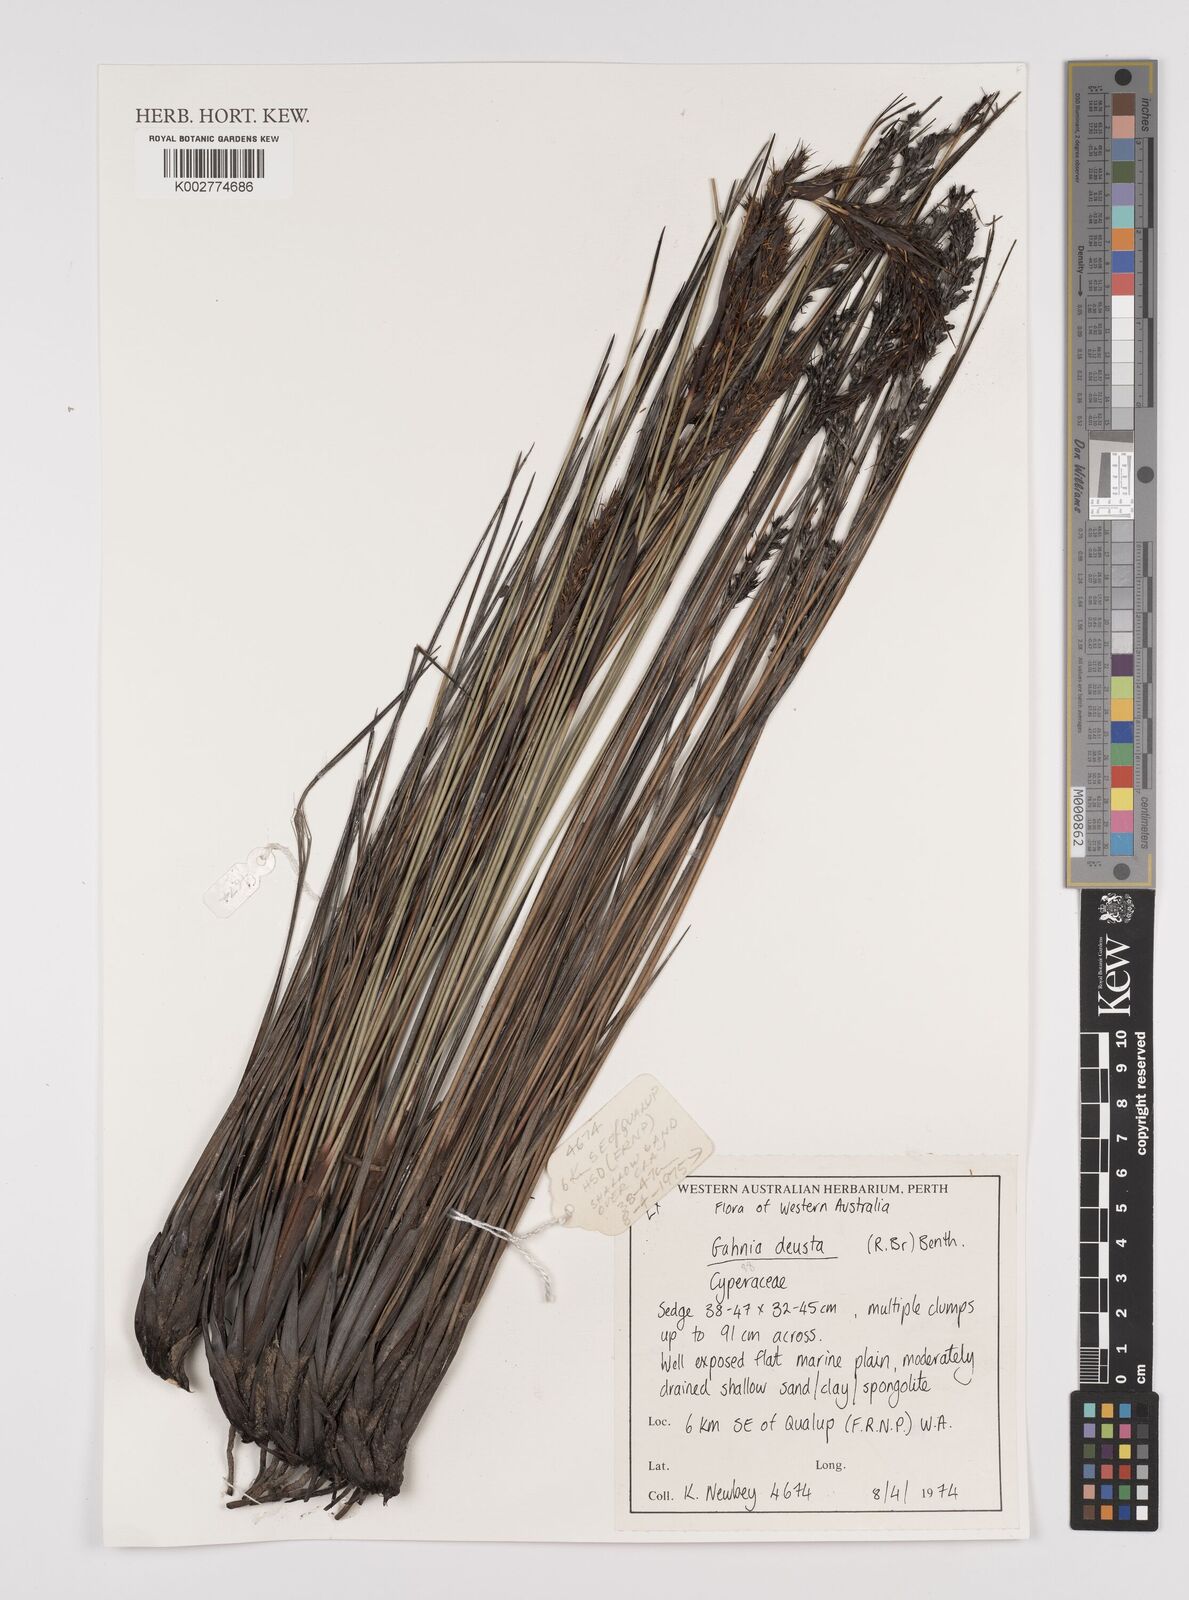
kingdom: Plantae
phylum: Tracheophyta
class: Liliopsida
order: Poales
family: Cyperaceae
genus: Gahnia
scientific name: Gahnia deusta
